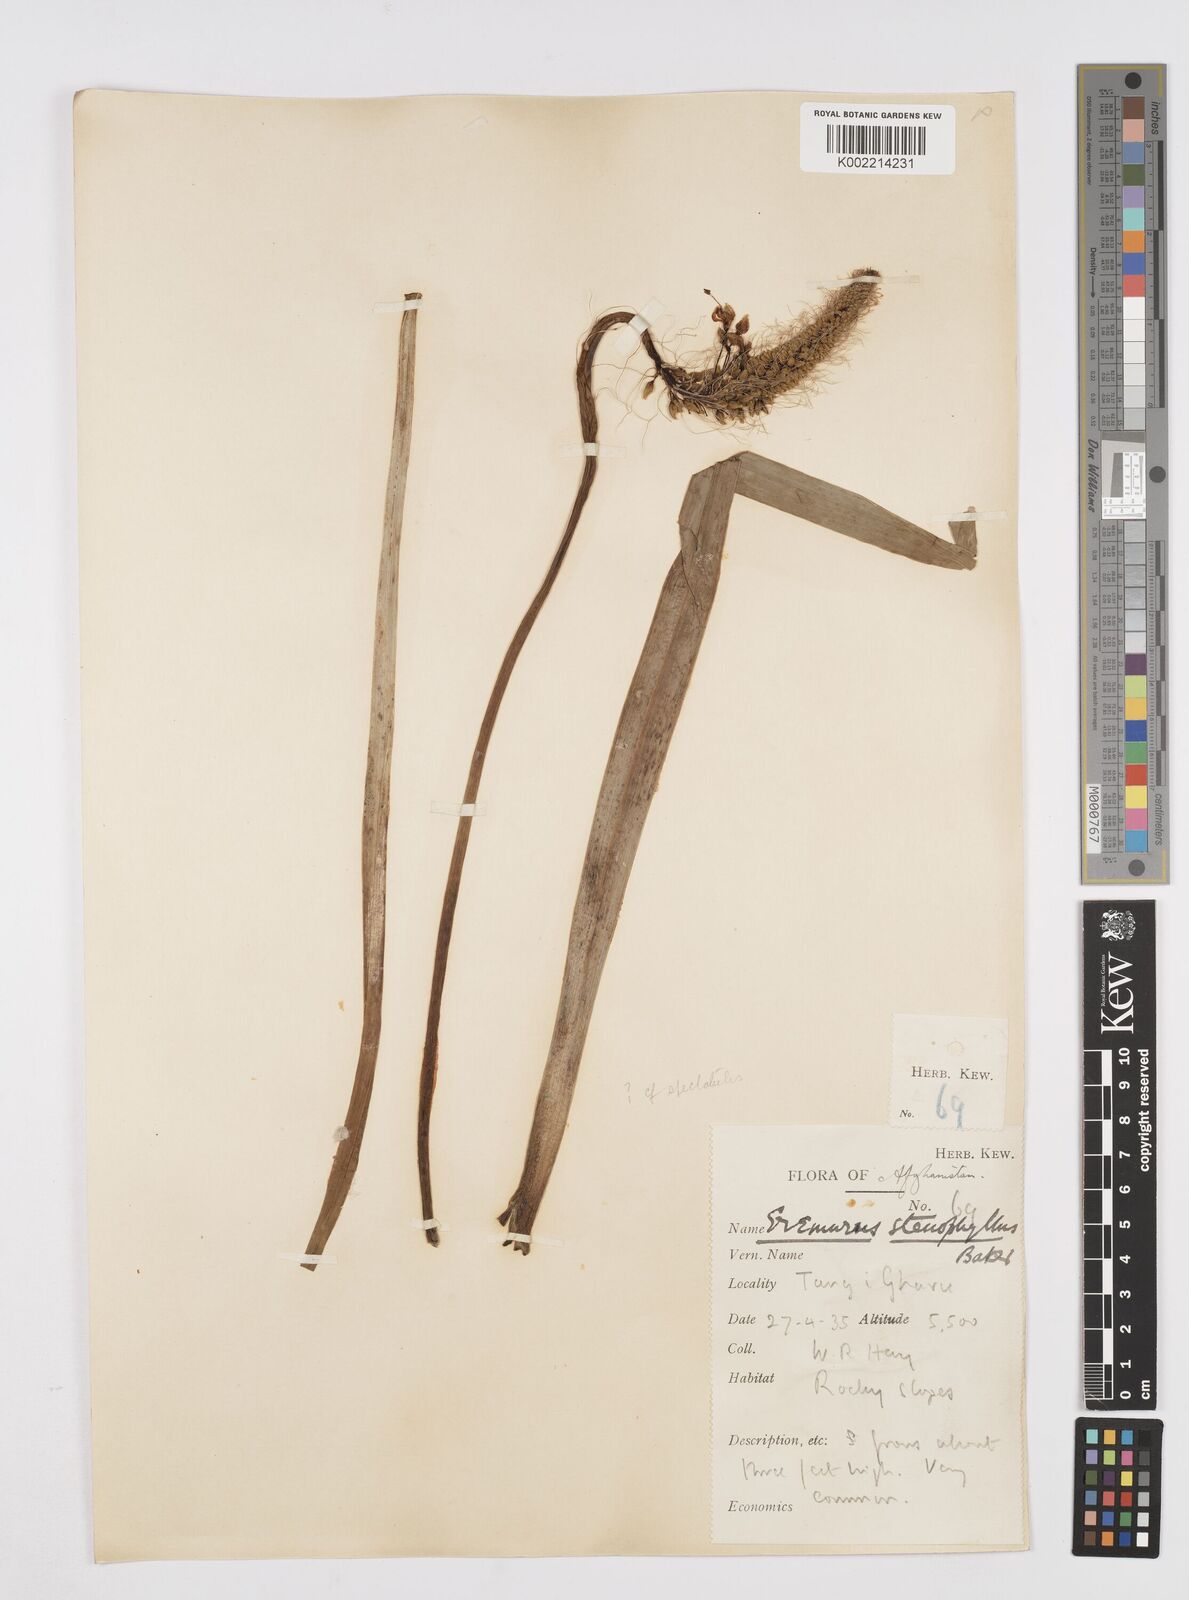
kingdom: Plantae
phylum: Tracheophyta
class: Liliopsida
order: Asparagales
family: Asphodelaceae
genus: Eremurus
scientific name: Eremurus stenophyllus
